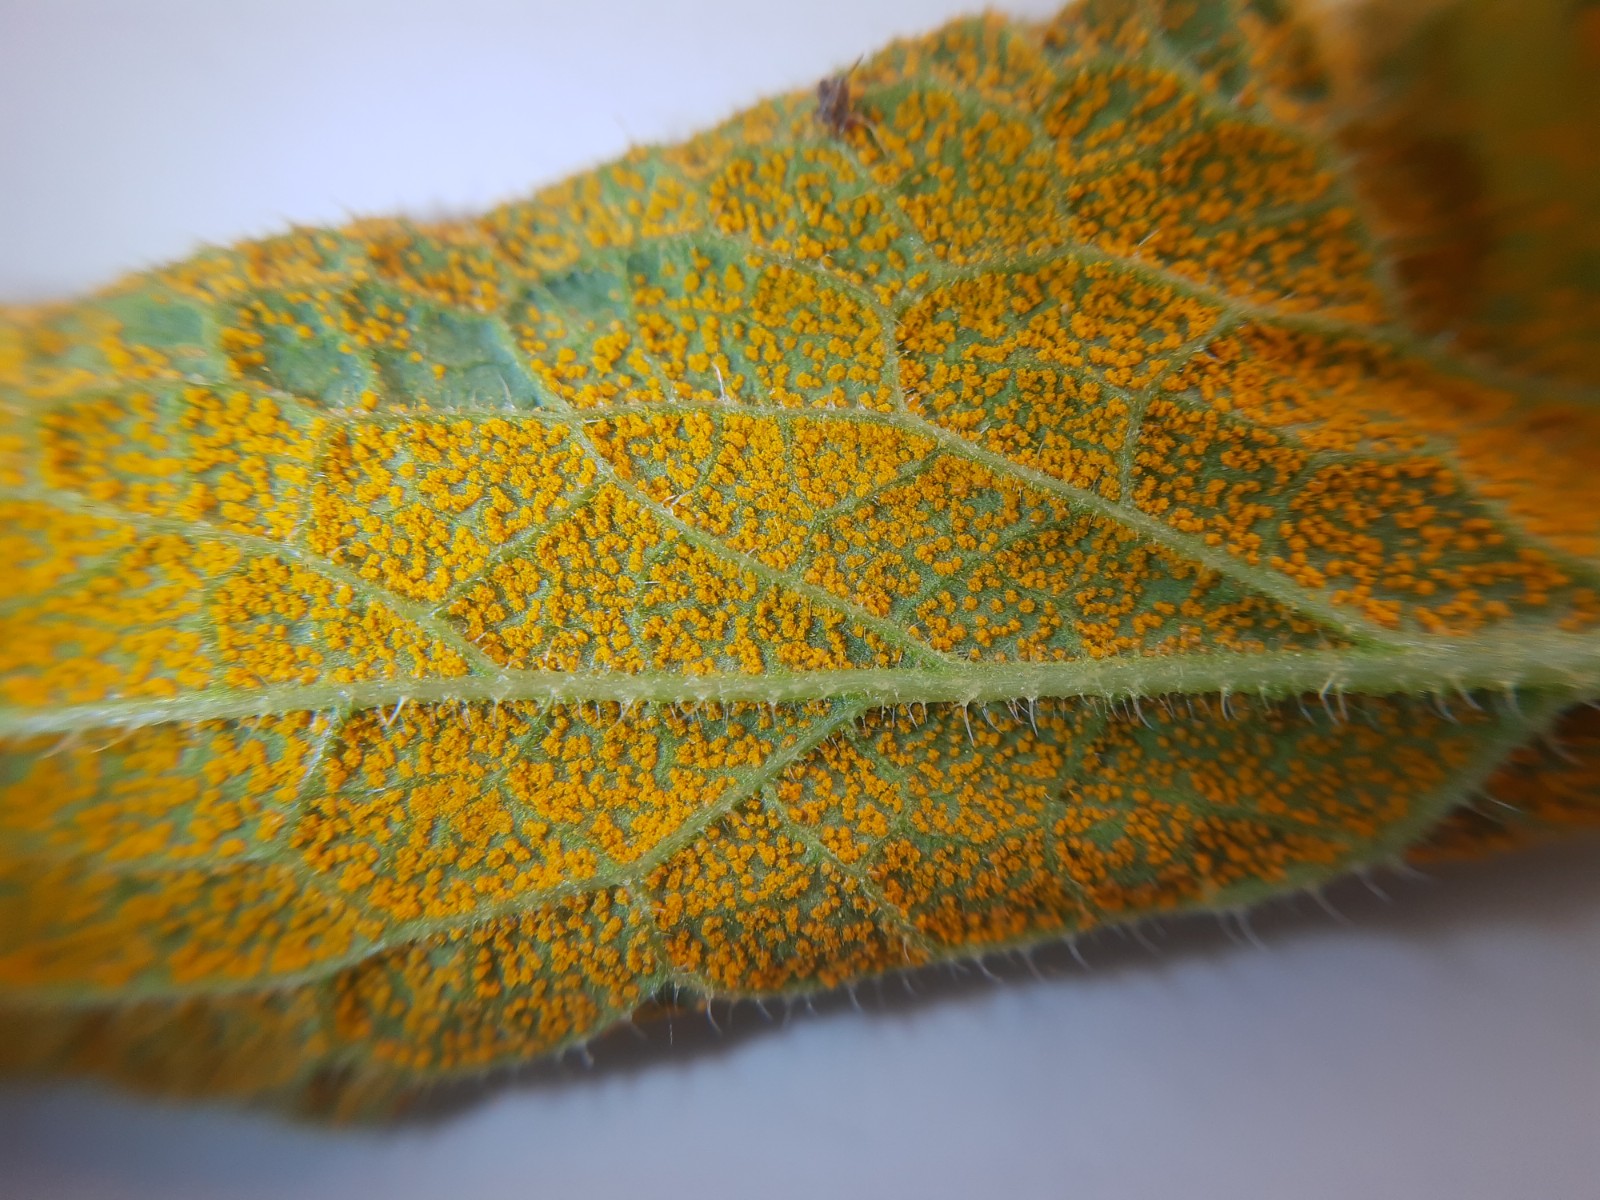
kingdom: Fungi
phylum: Basidiomycota
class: Pucciniomycetes
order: Pucciniales
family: Pucciniastraceae
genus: Pucciniastrum
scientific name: Pucciniastrum symphyti
